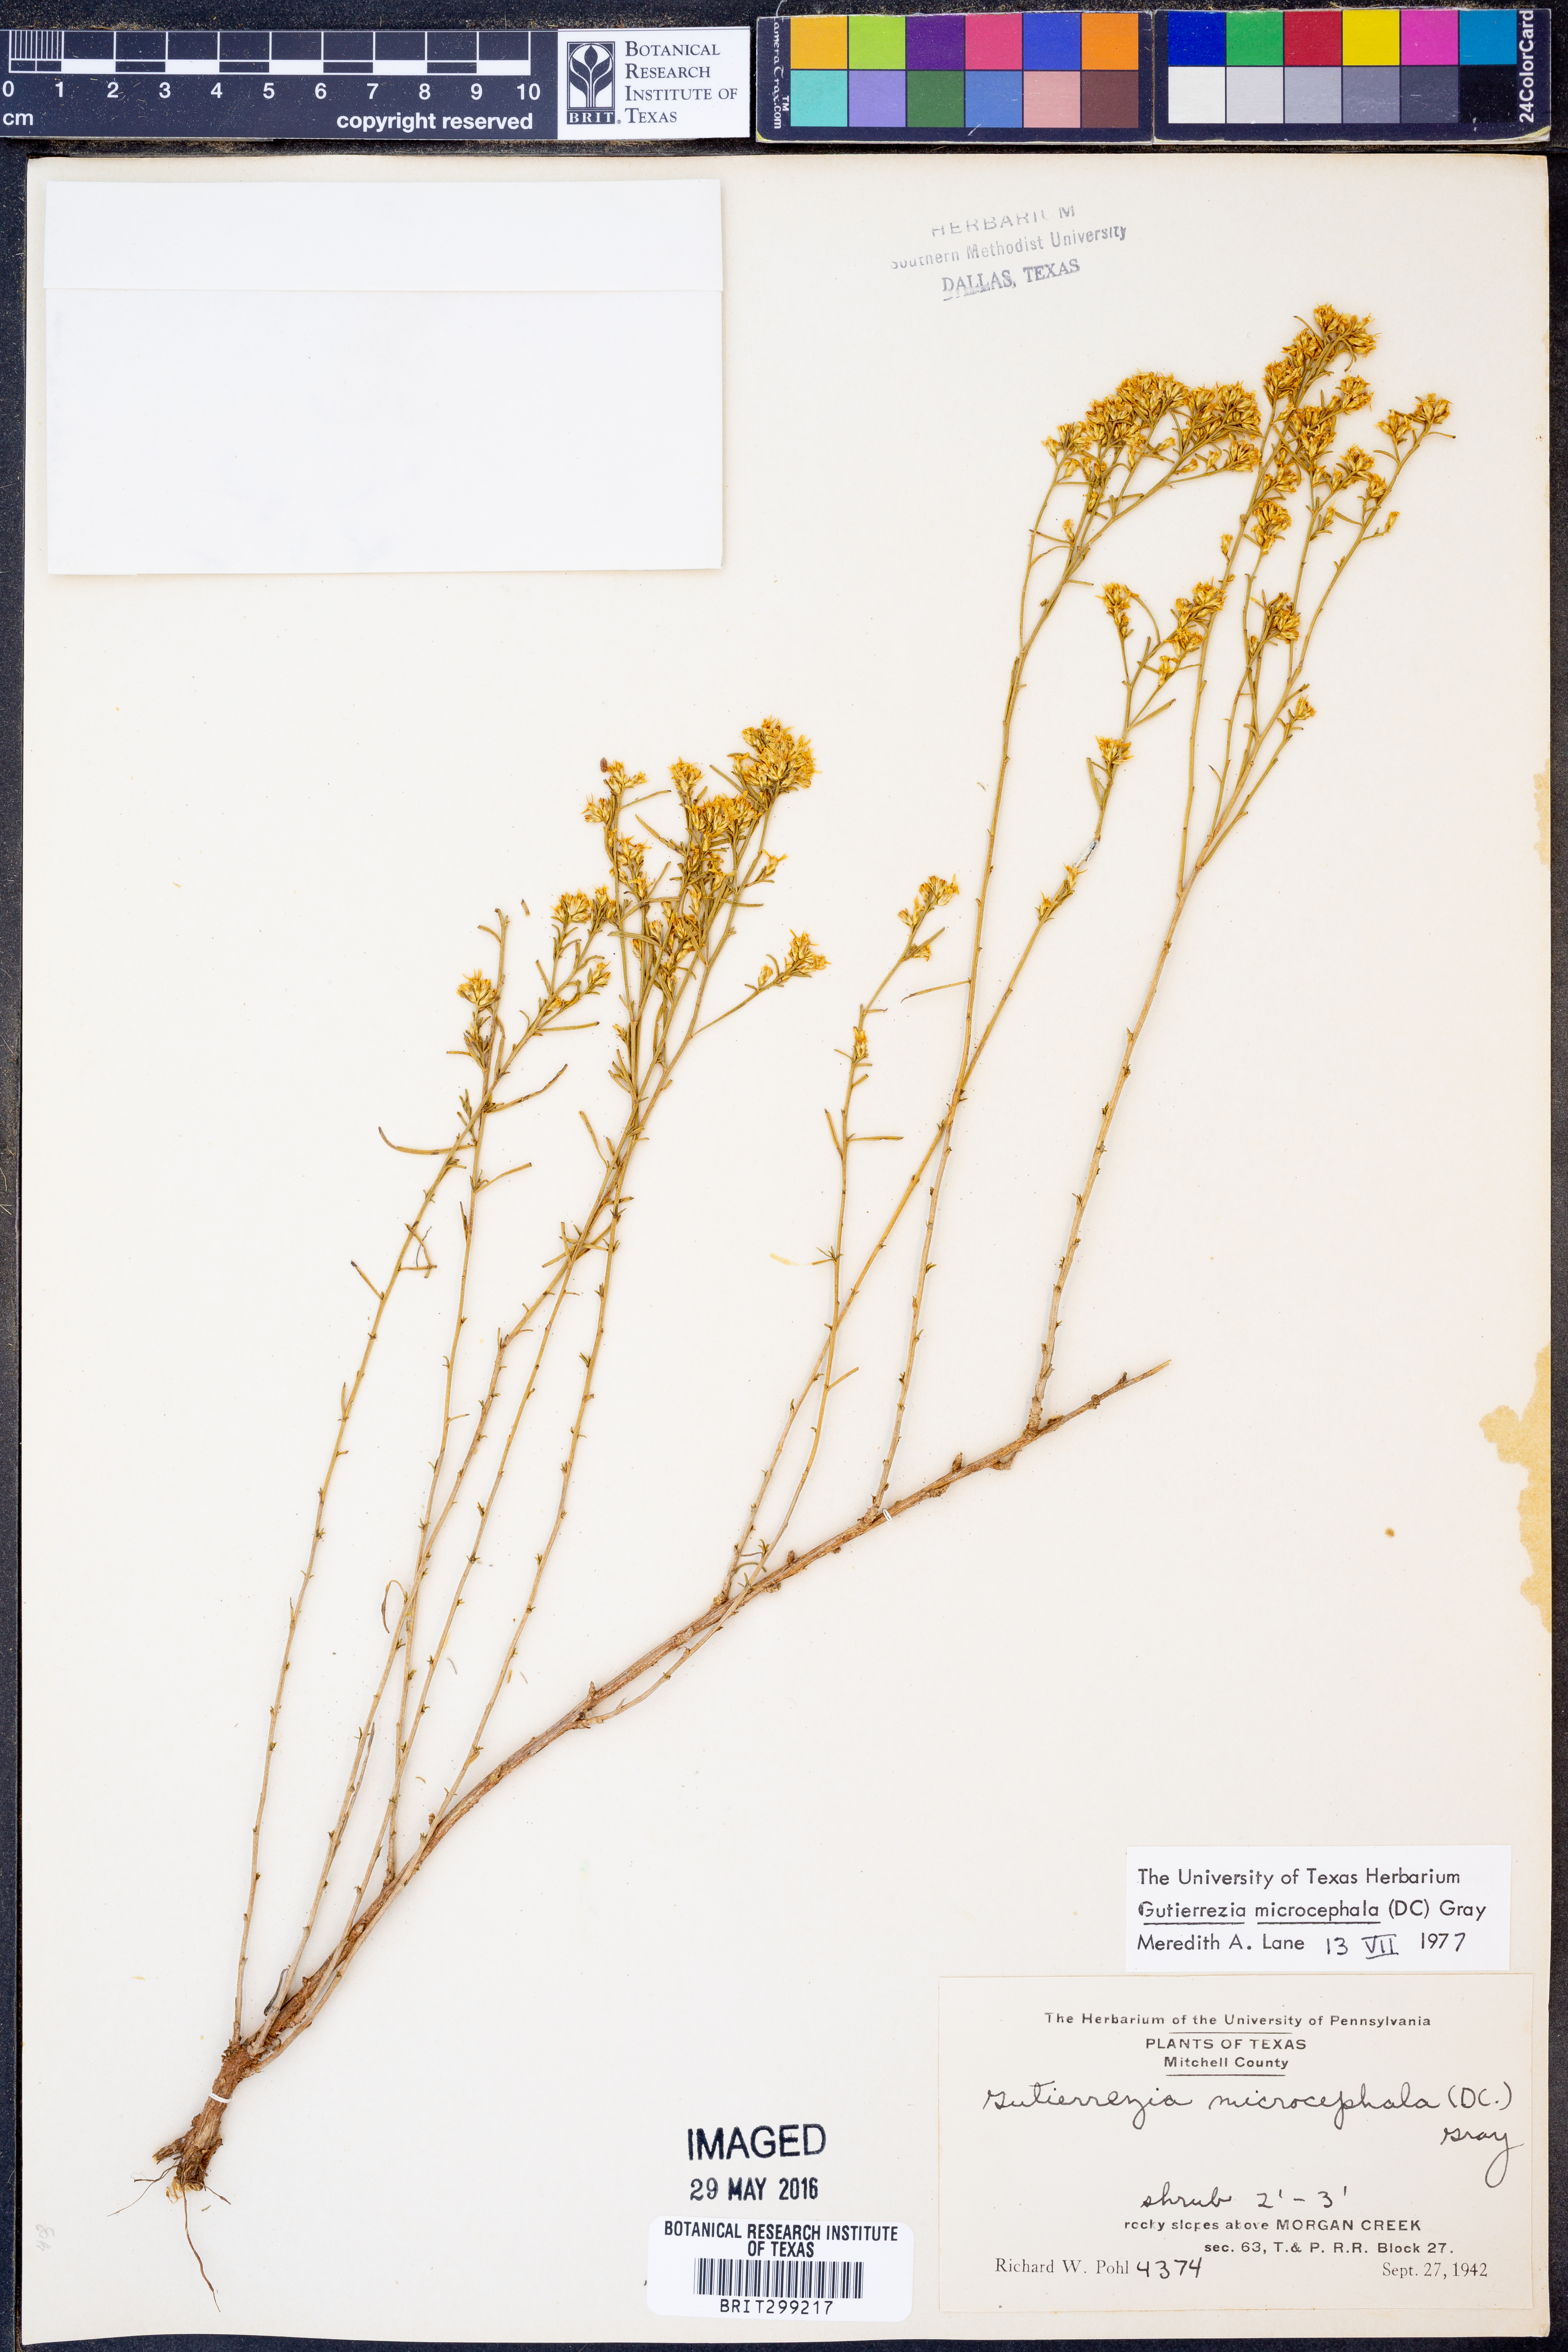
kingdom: Plantae
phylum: Tracheophyta
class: Magnoliopsida
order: Asterales
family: Asteraceae
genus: Gutierrezia
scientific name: Gutierrezia microcephala
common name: Thread snakeweed
